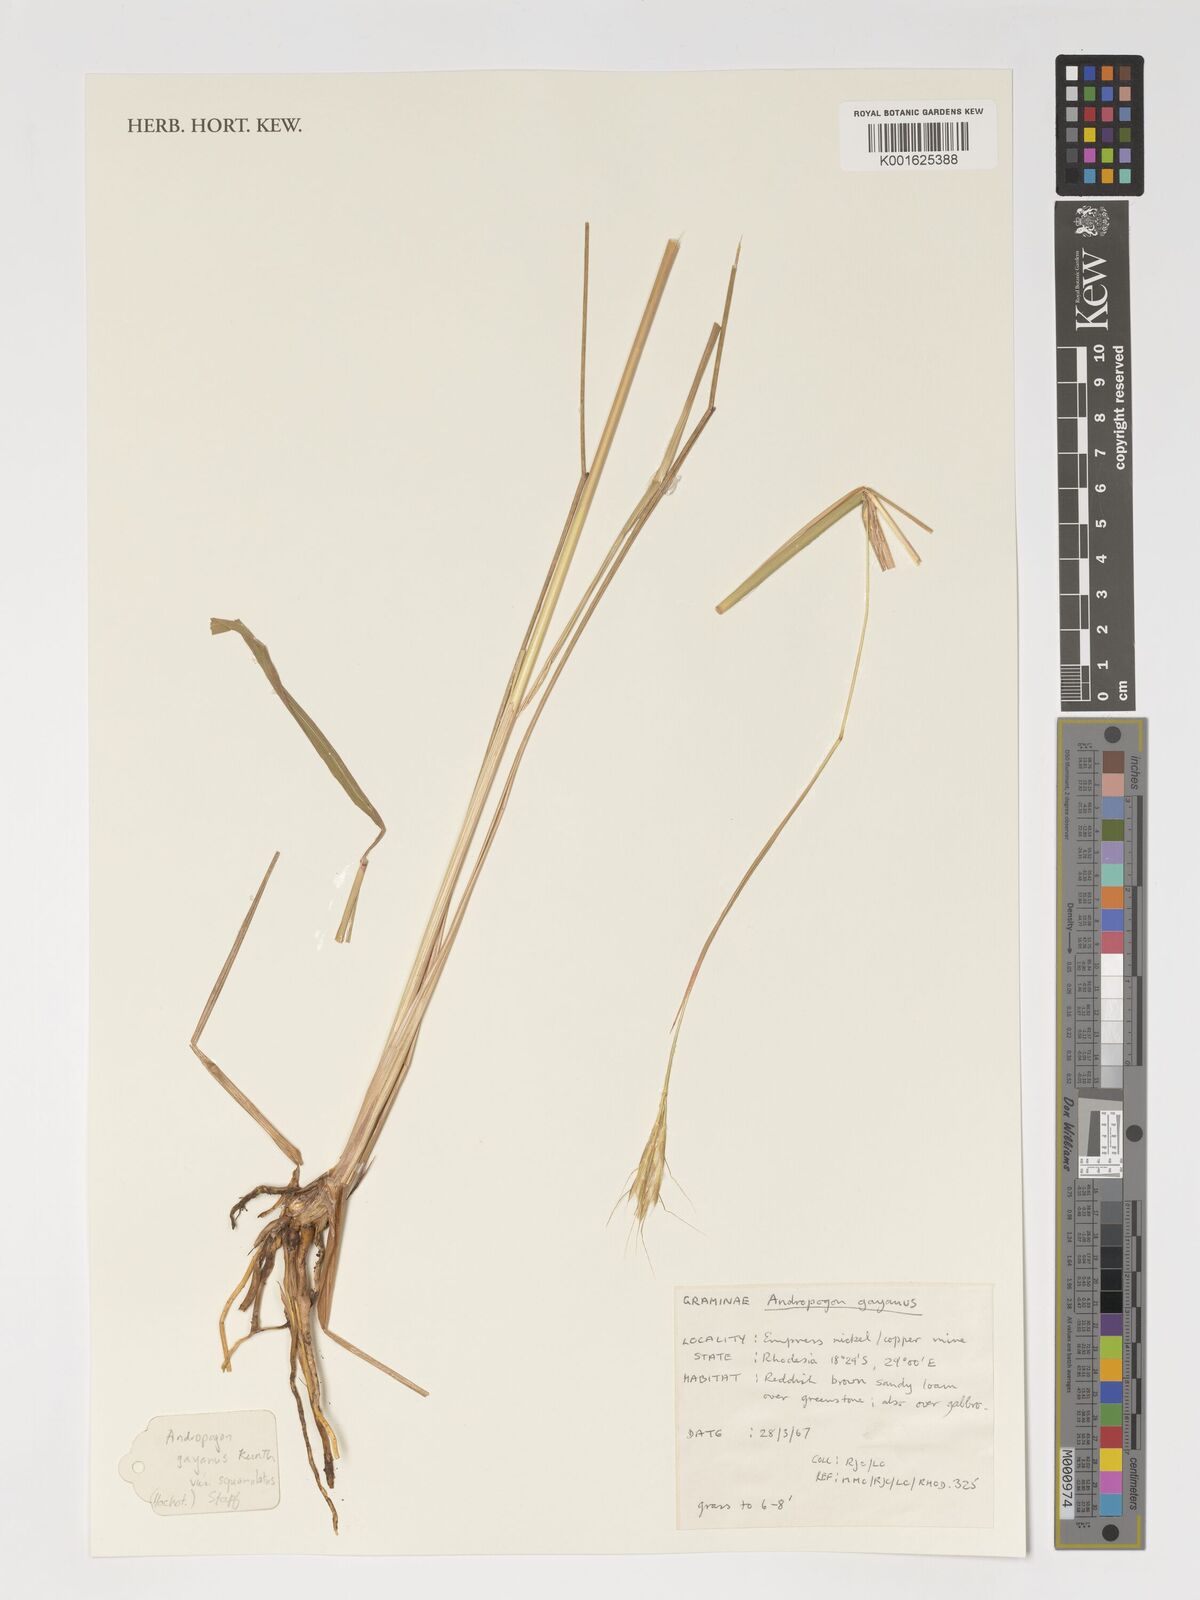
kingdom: Plantae
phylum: Tracheophyta
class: Liliopsida
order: Poales
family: Poaceae
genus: Andropogon
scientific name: Andropogon gayanus
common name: Tambuki grass
